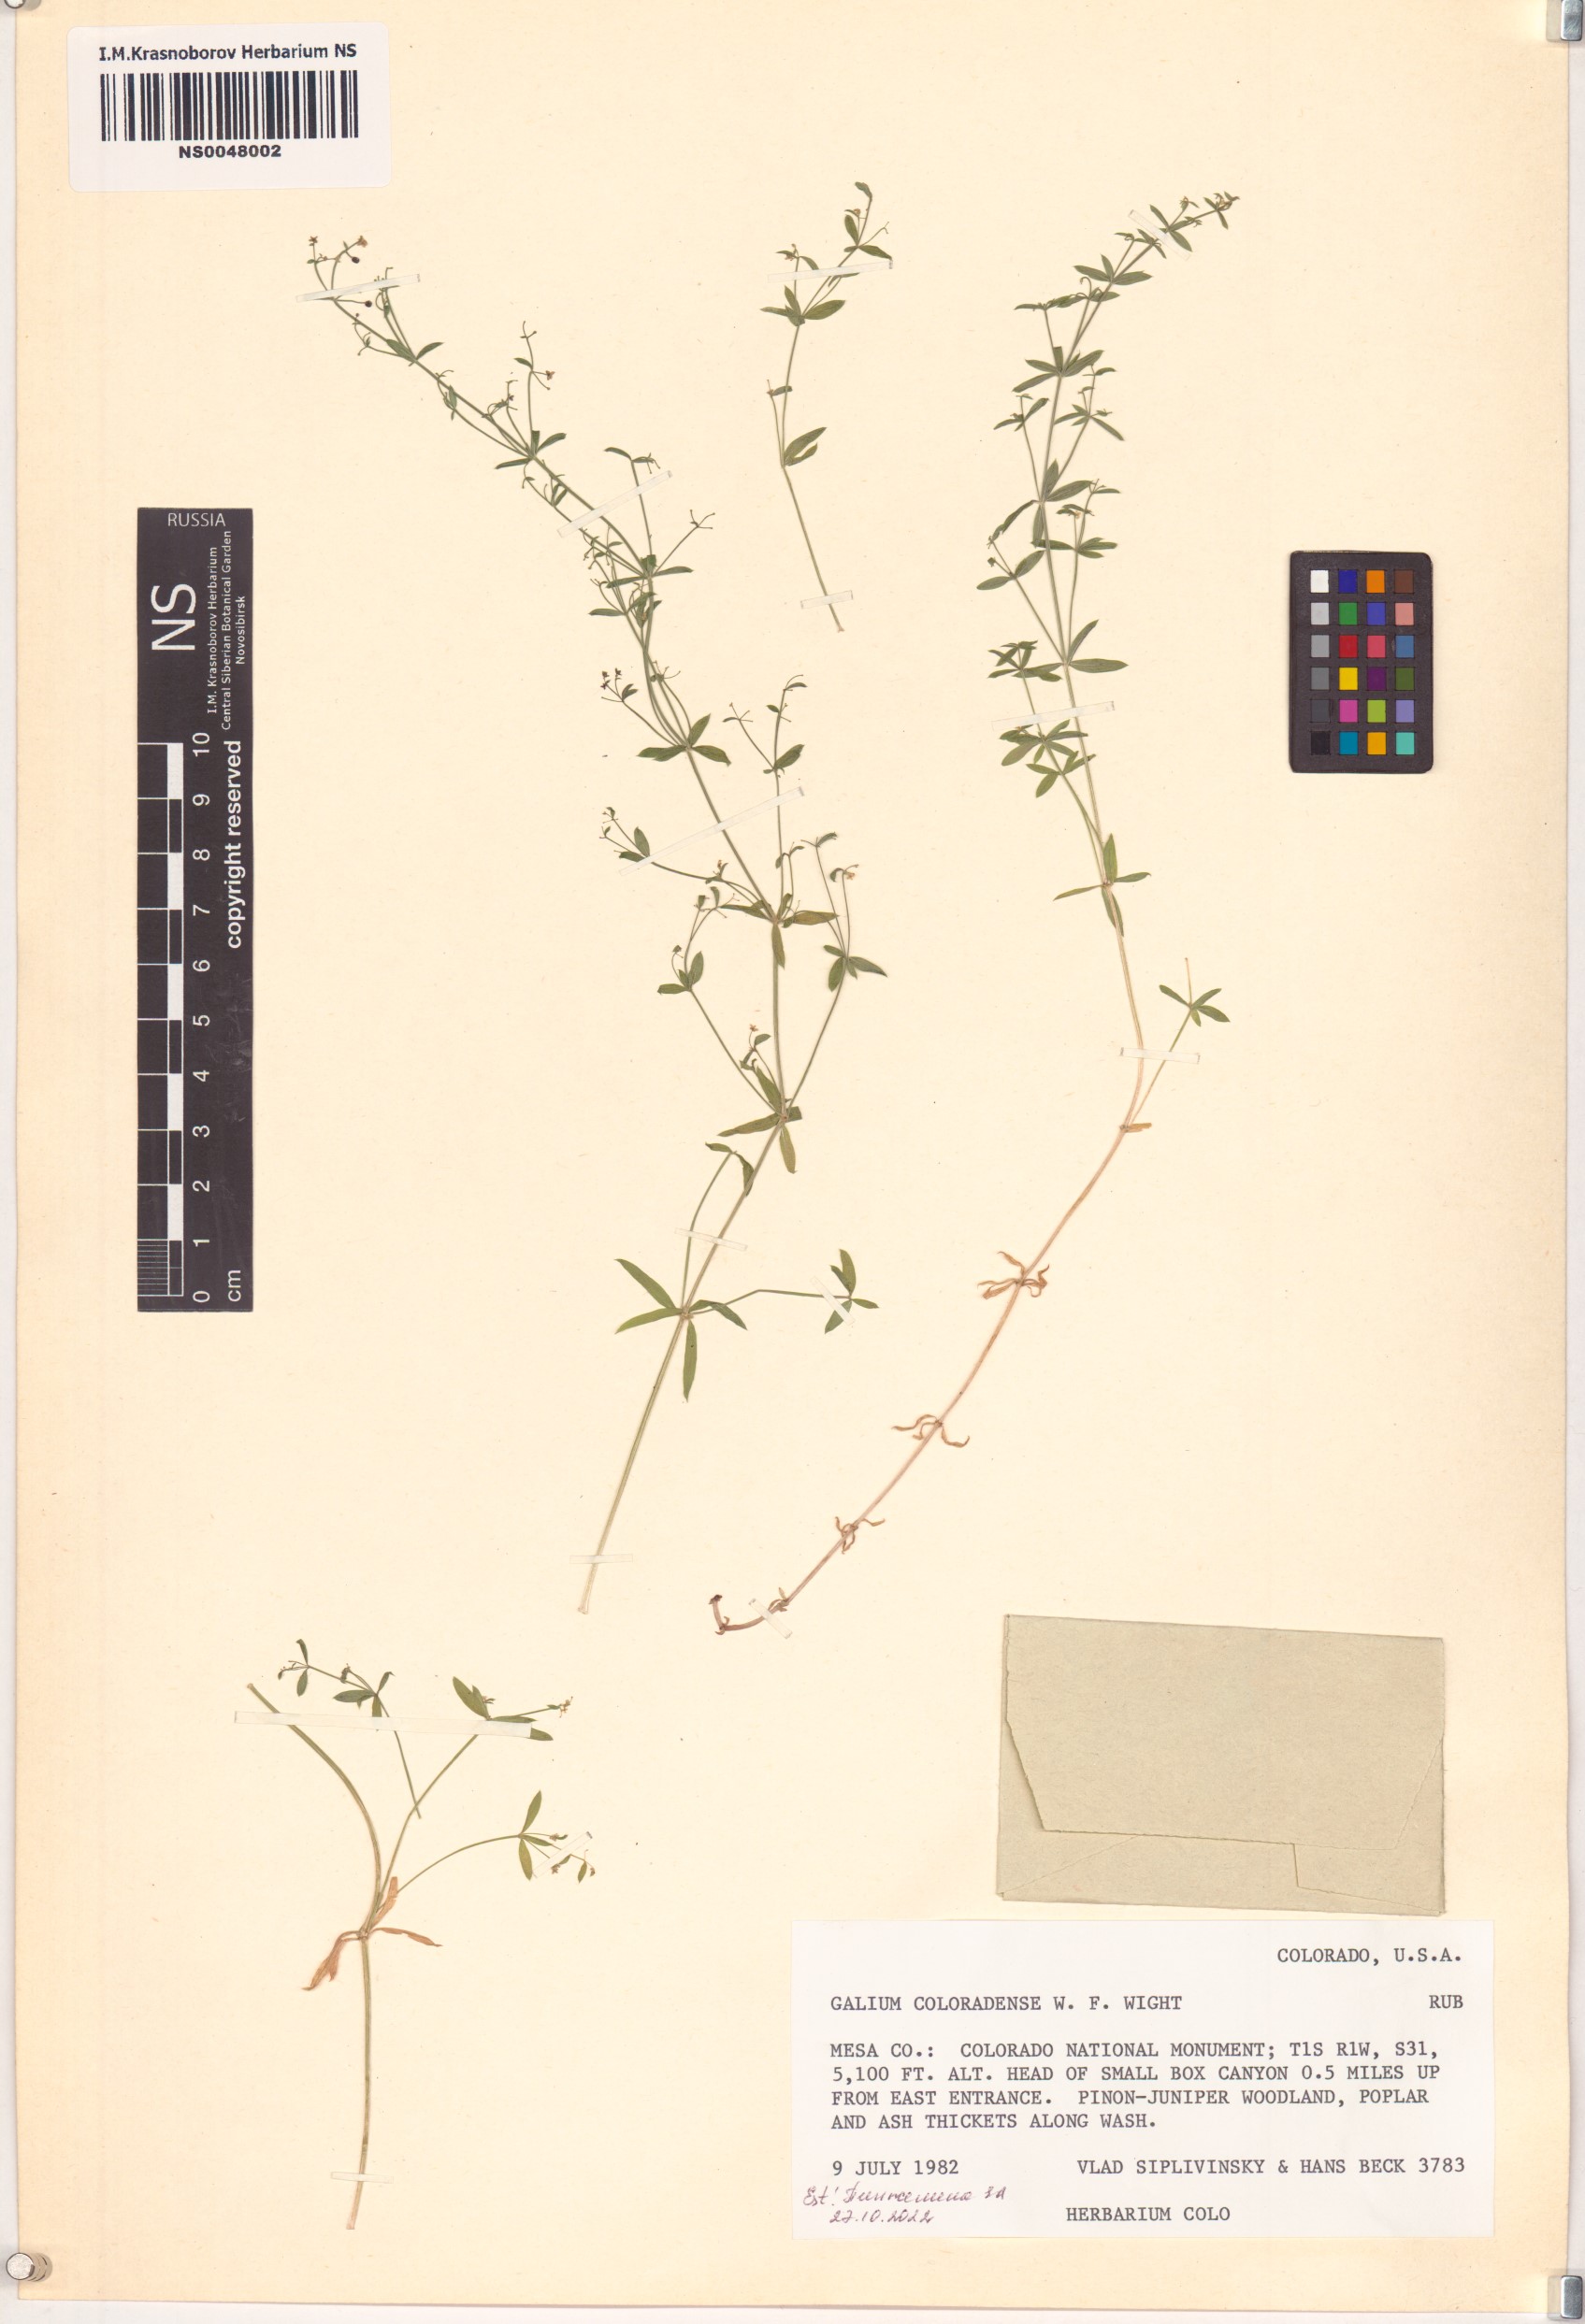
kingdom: Plantae
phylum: Tracheophyta
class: Magnoliopsida
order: Gentianales
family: Rubiaceae
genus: Galium
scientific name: Galium coloradoense
